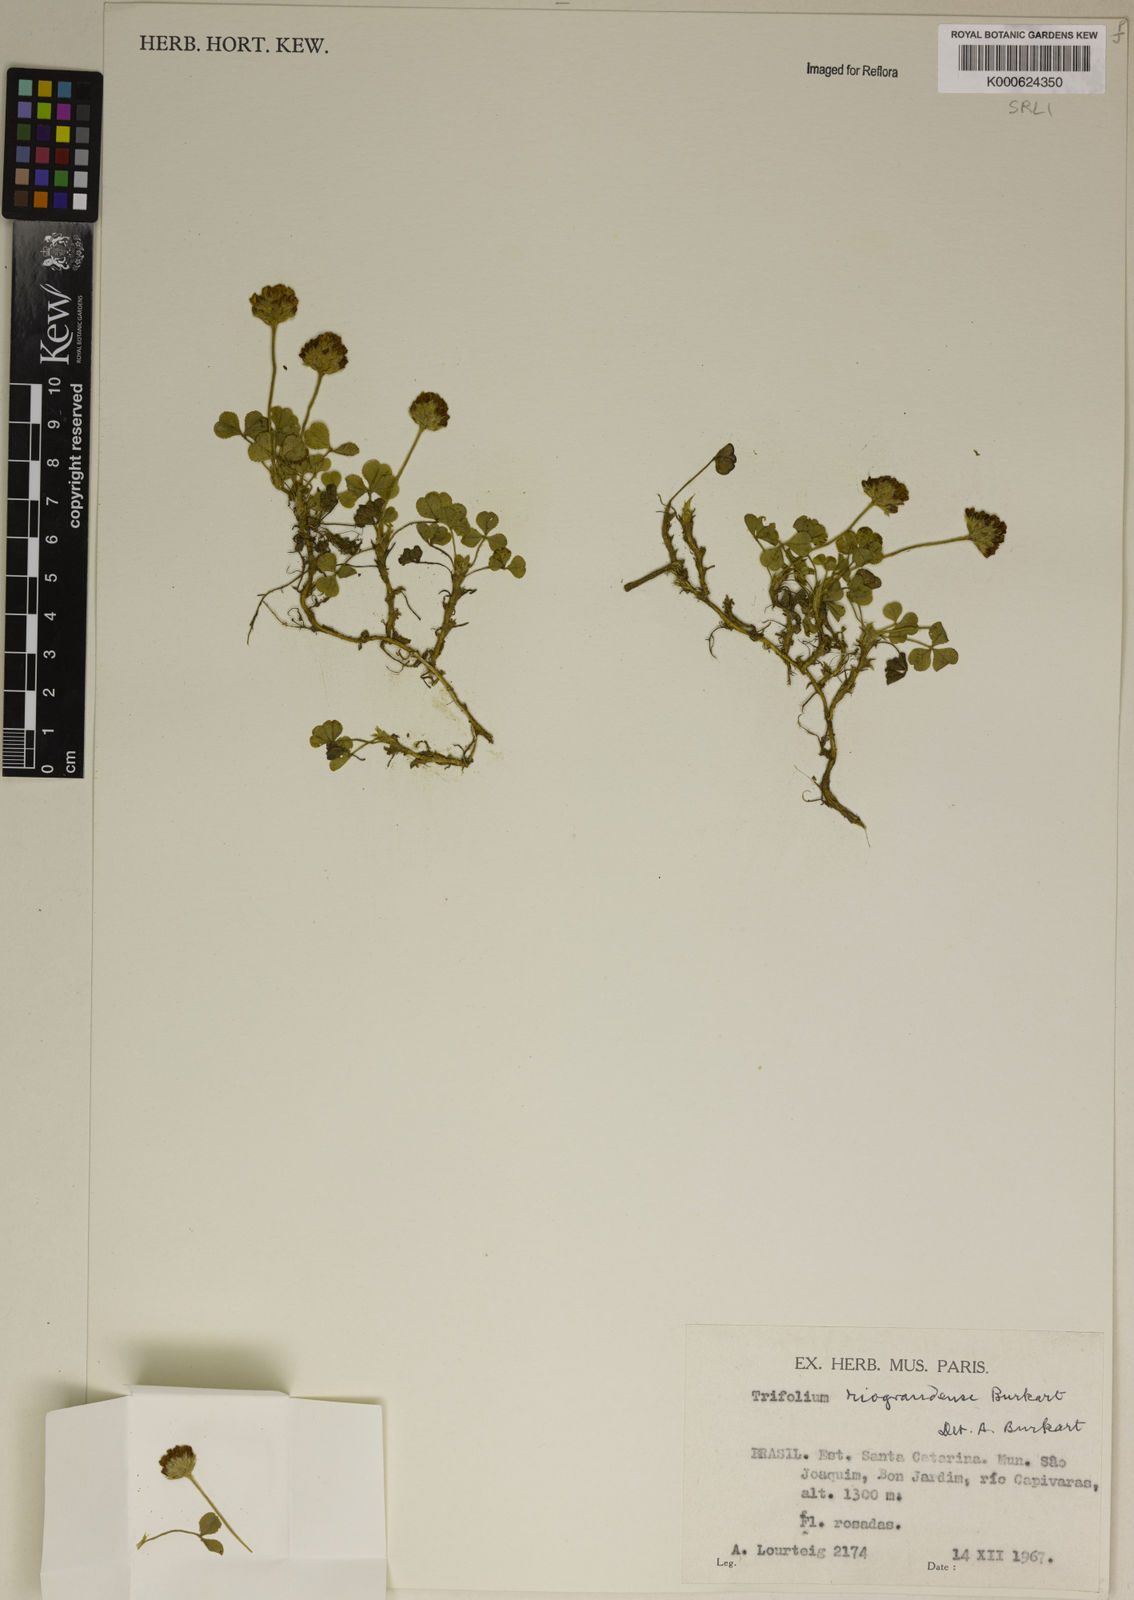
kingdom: Plantae
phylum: Tracheophyta
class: Magnoliopsida
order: Fabales
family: Fabaceae
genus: Trifolium
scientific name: Trifolium riograndense
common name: Rio grande clover
